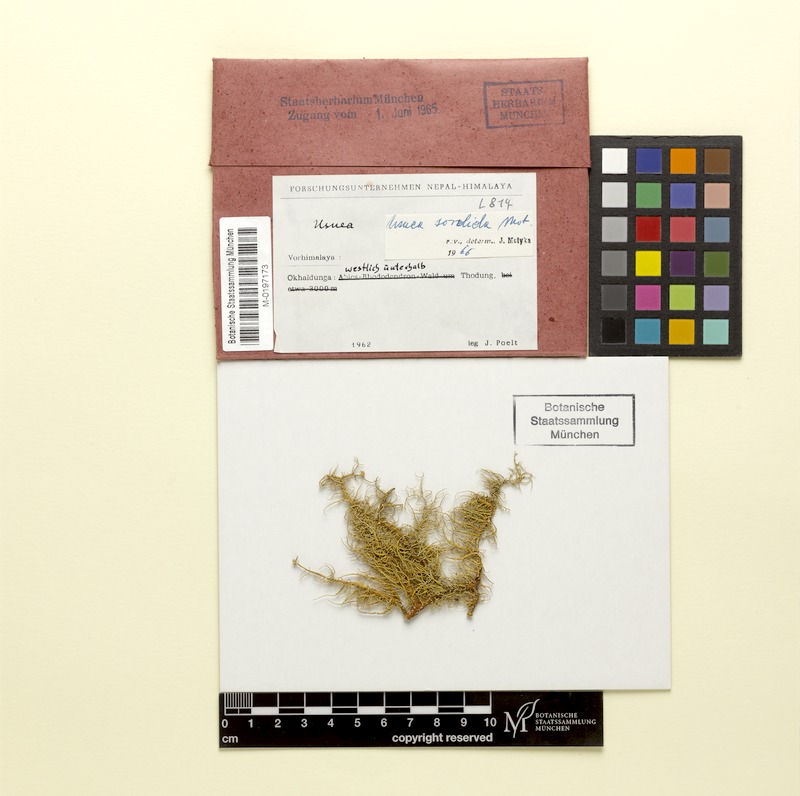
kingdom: Fungi
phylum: Ascomycota
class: Lecanoromycetes
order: Lecanorales
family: Parmeliaceae
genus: Usnea
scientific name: Usnea
